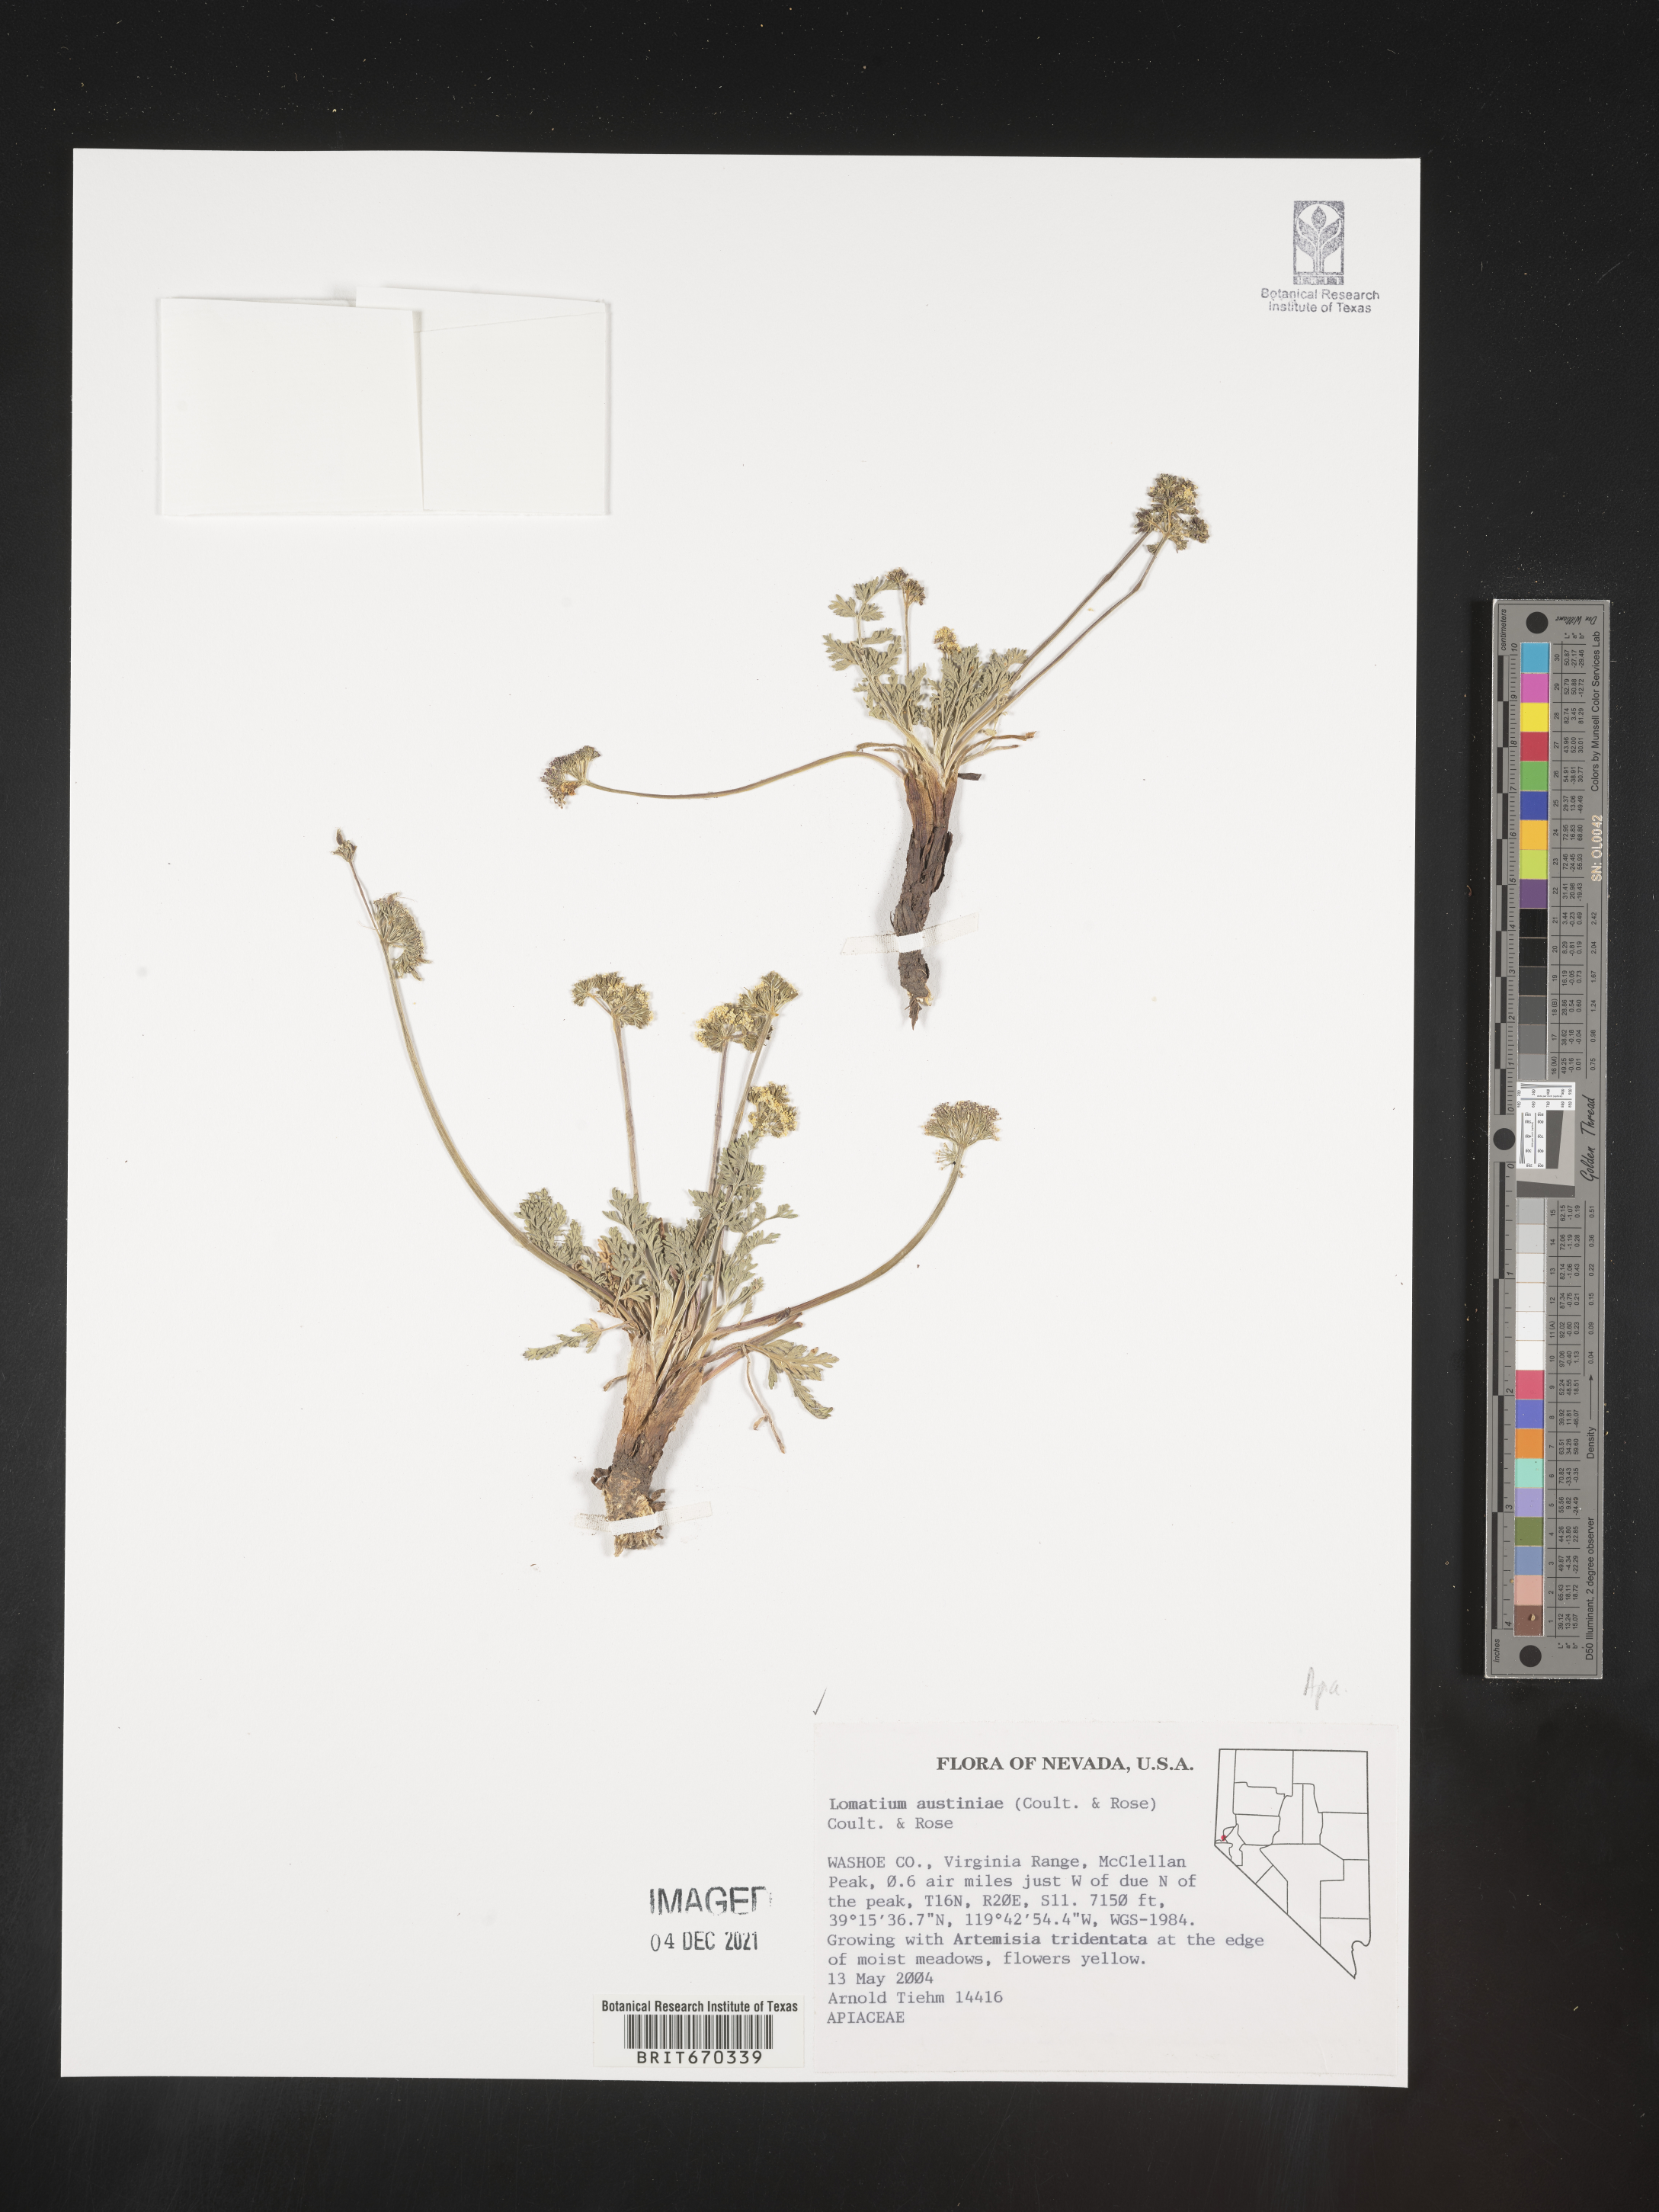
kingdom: Plantae
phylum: Tracheophyta
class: Magnoliopsida
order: Apiales
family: Apiaceae
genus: Lomatium
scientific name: Lomatium austiniae
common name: Plumas lomatium
